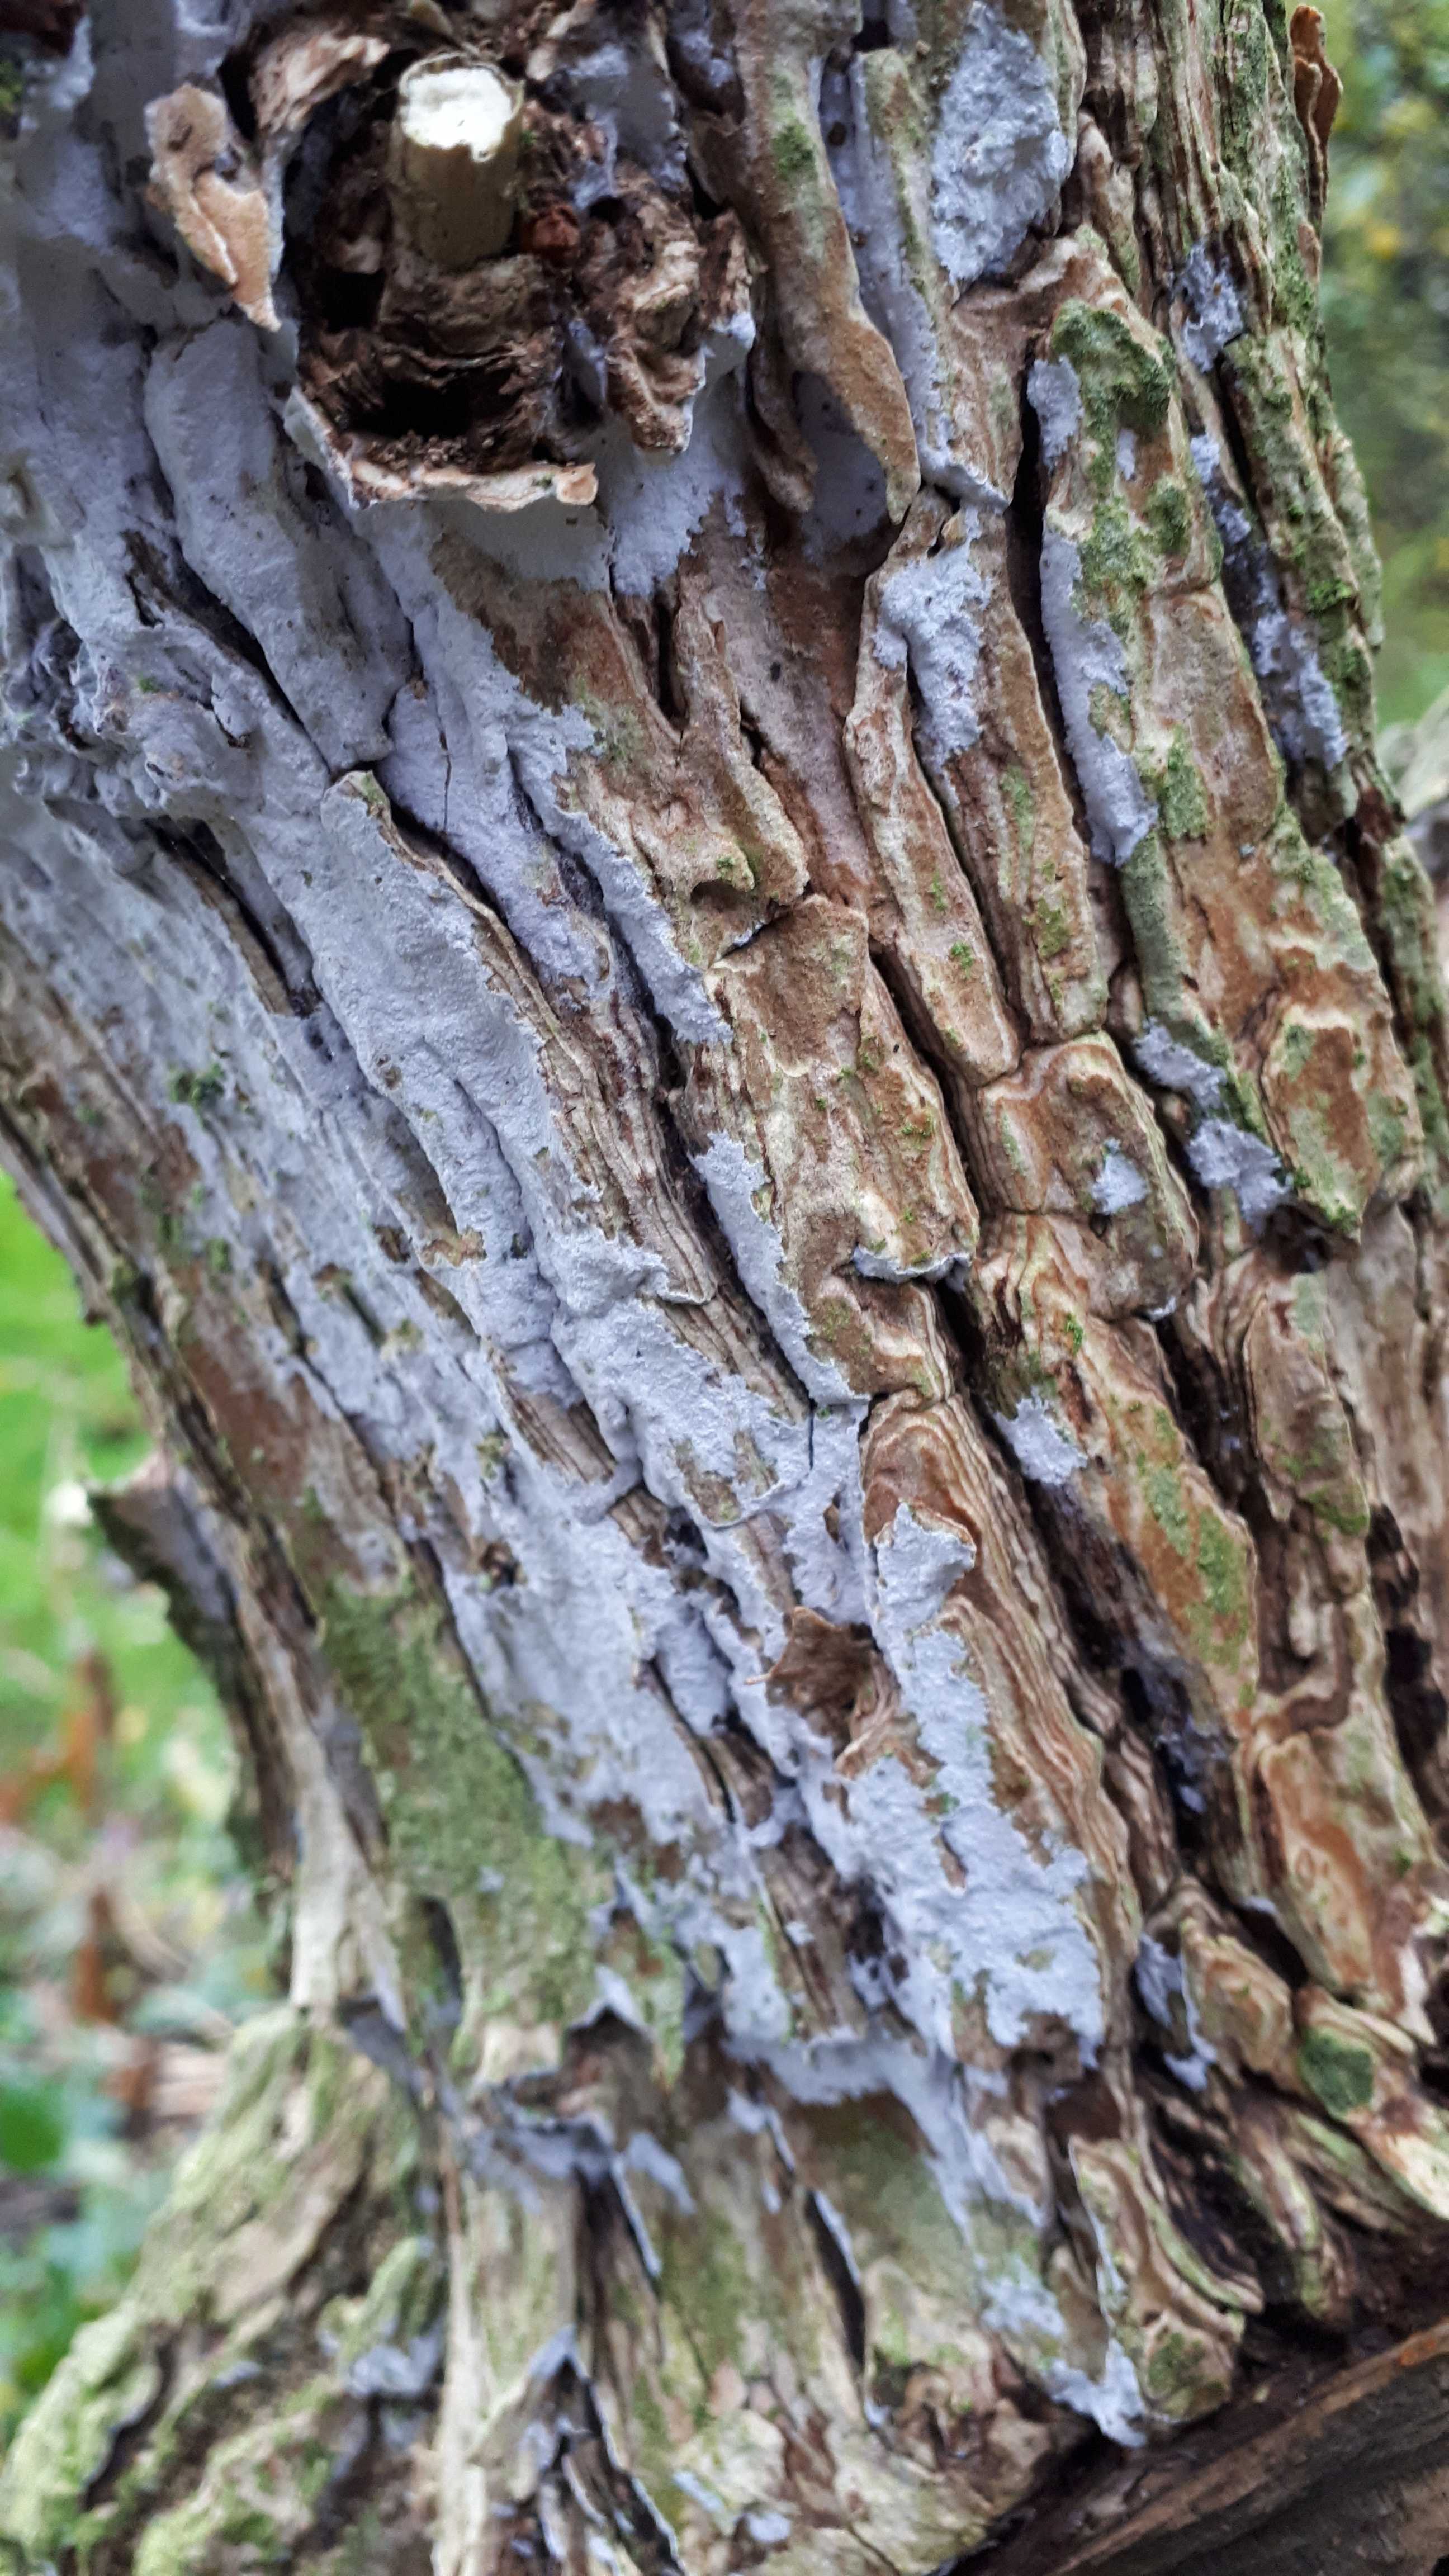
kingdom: Fungi
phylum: Basidiomycota
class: Agaricomycetes
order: Corticiales
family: Corticiaceae
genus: Lyomyces
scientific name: Lyomyces sambuci
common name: almindelig hyldehinde
